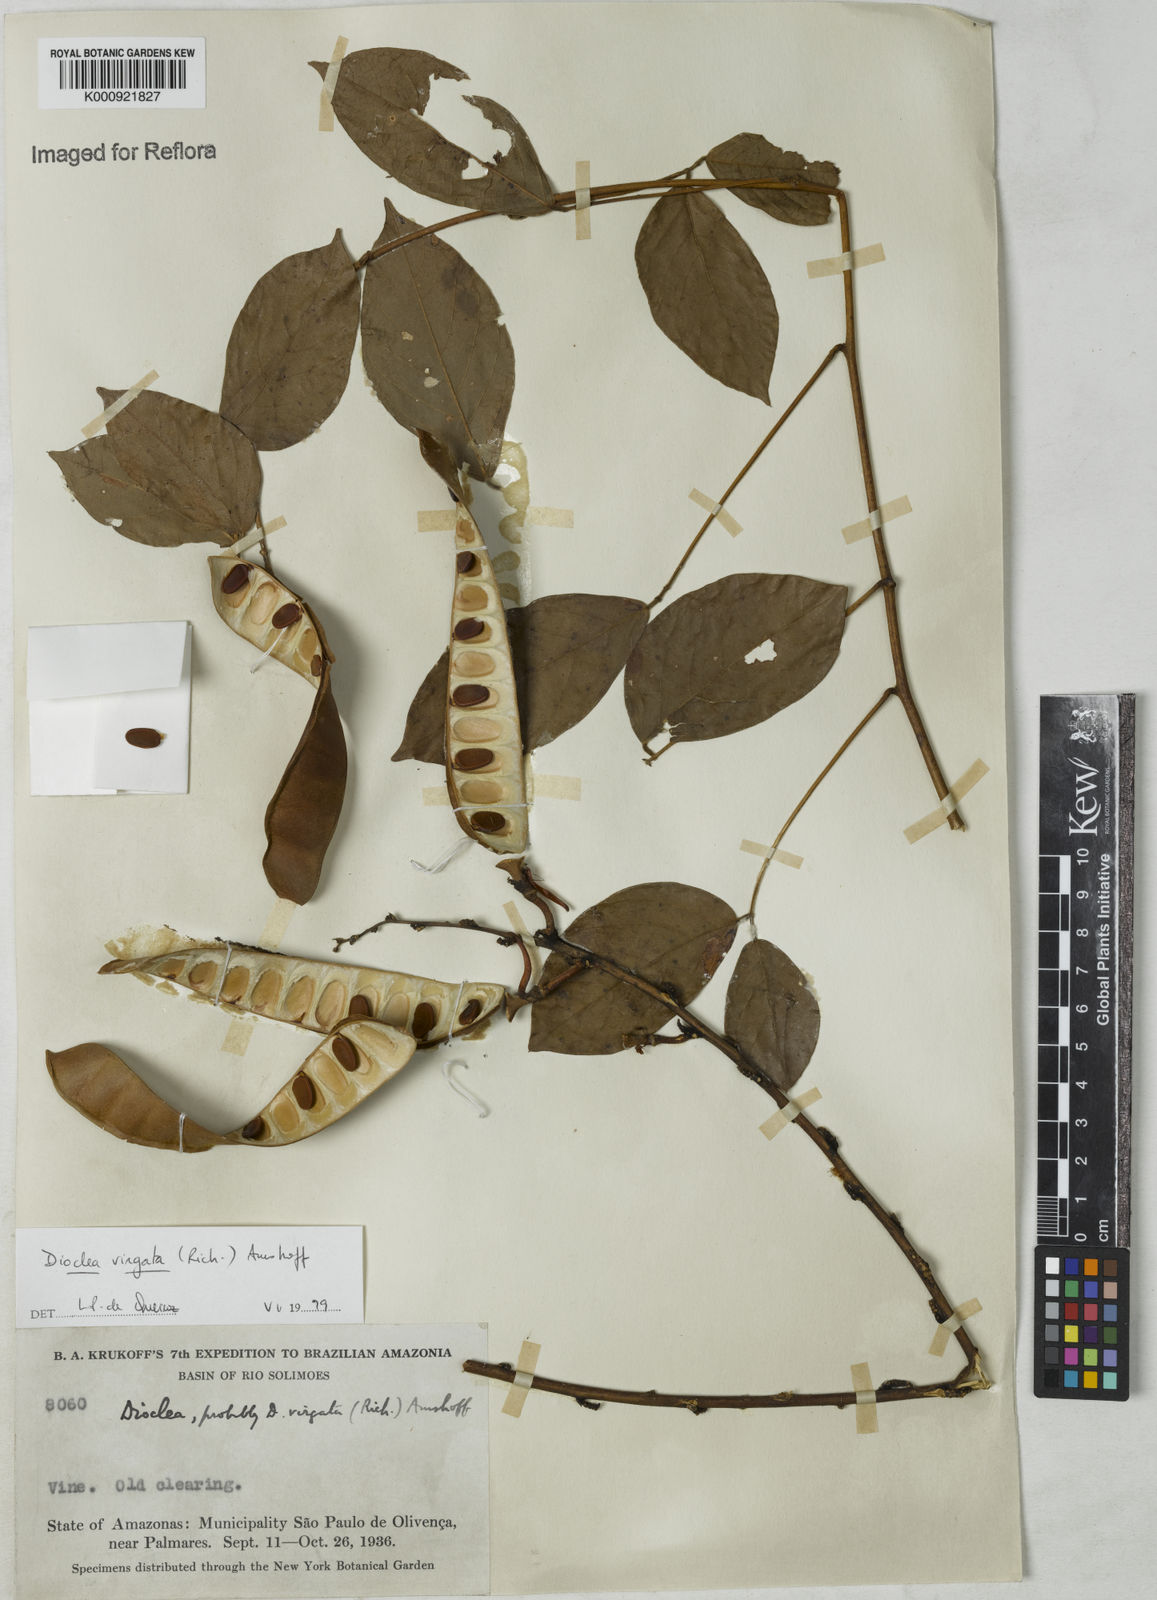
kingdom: Plantae
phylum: Tracheophyta
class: Magnoliopsida
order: Fabales
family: Fabaceae
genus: Dioclea
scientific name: Dioclea virgata
